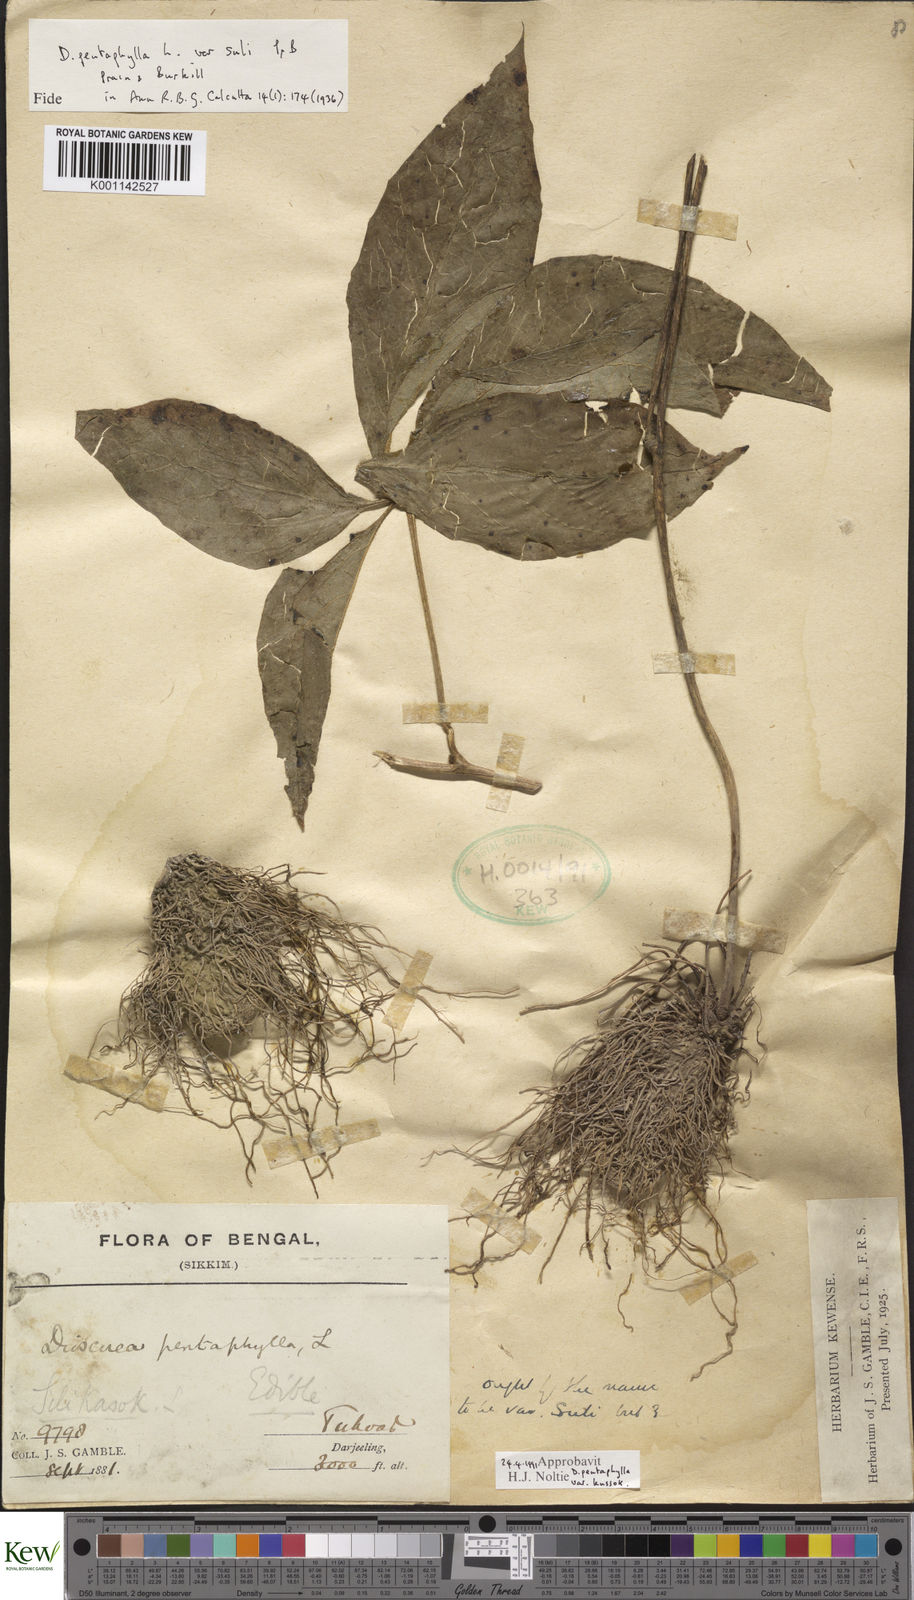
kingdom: Plantae
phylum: Tracheophyta
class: Liliopsida
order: Dioscoreales
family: Dioscoreaceae
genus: Dioscorea
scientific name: Dioscorea pentaphylla
